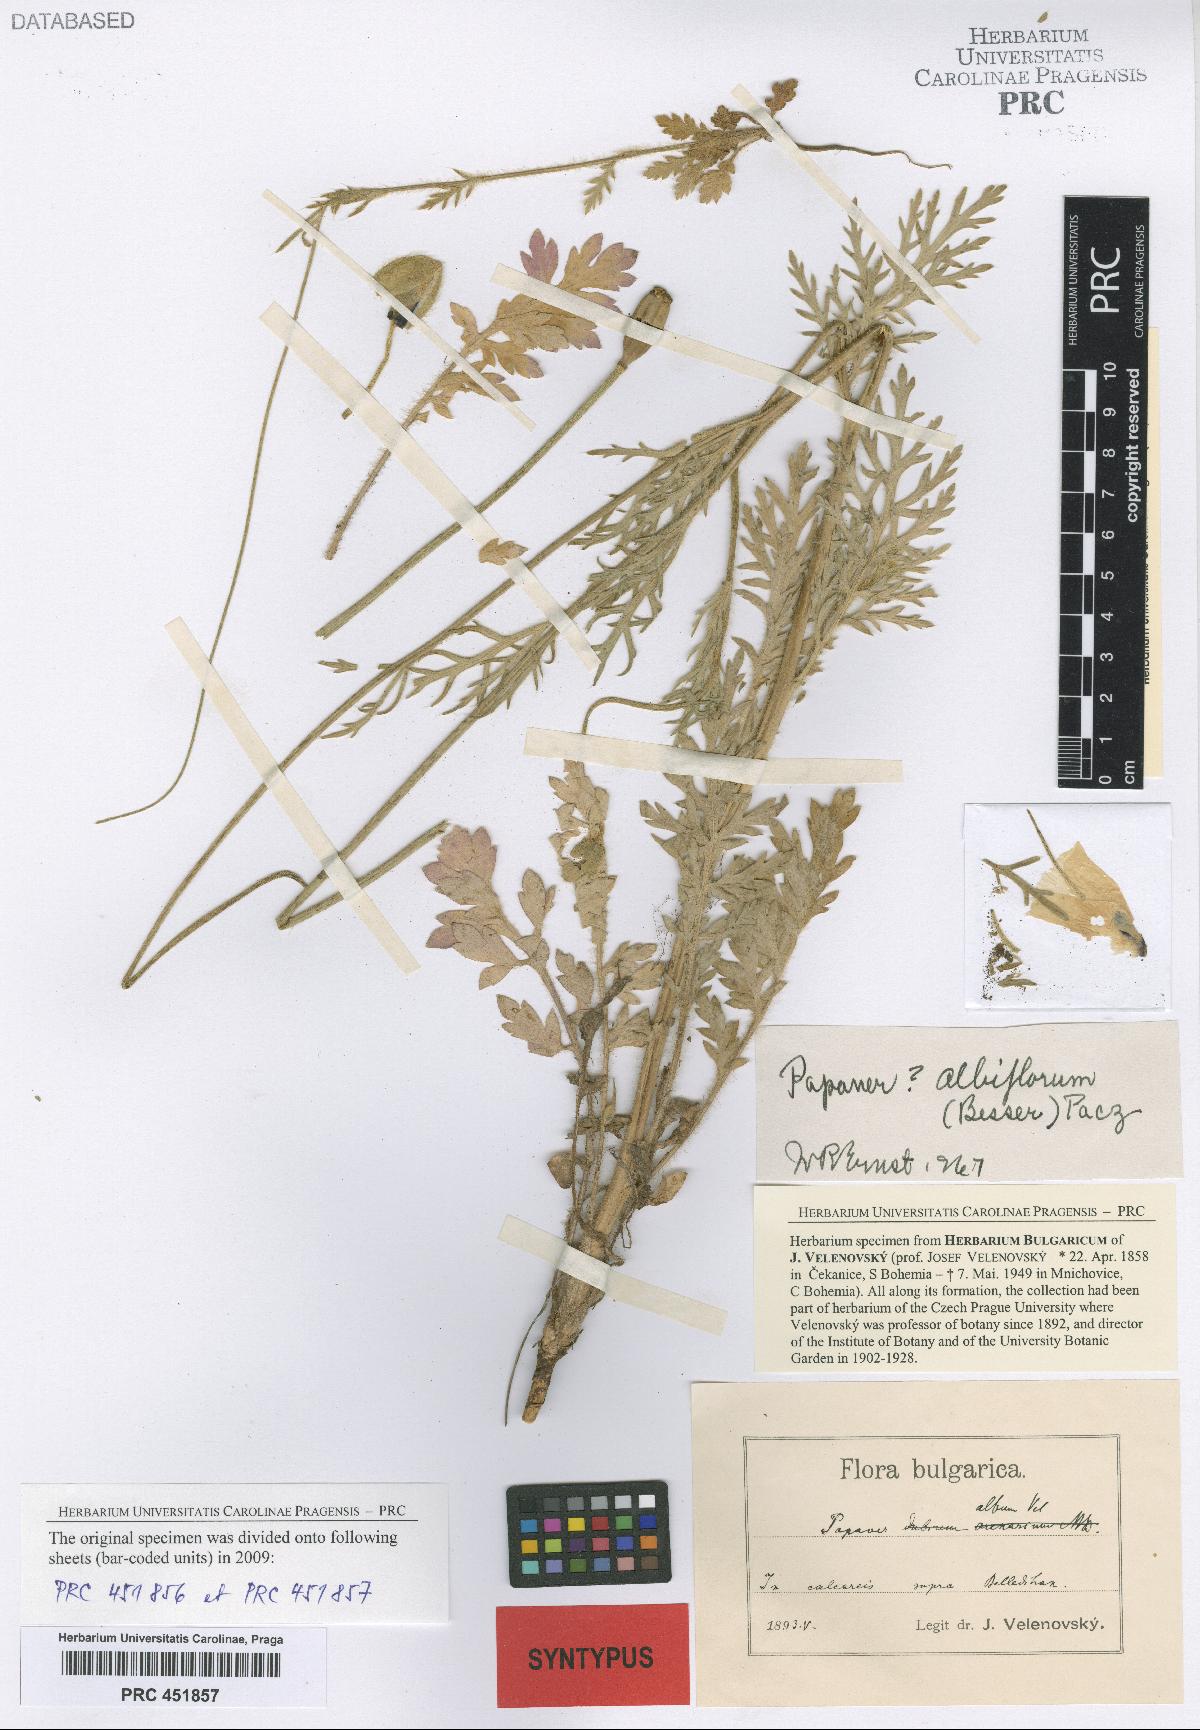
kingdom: Plantae
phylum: Tracheophyta
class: Magnoliopsida
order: Ranunculales
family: Papaveraceae
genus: Papaver
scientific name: Papaver dubium
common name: Long-headed poppy
